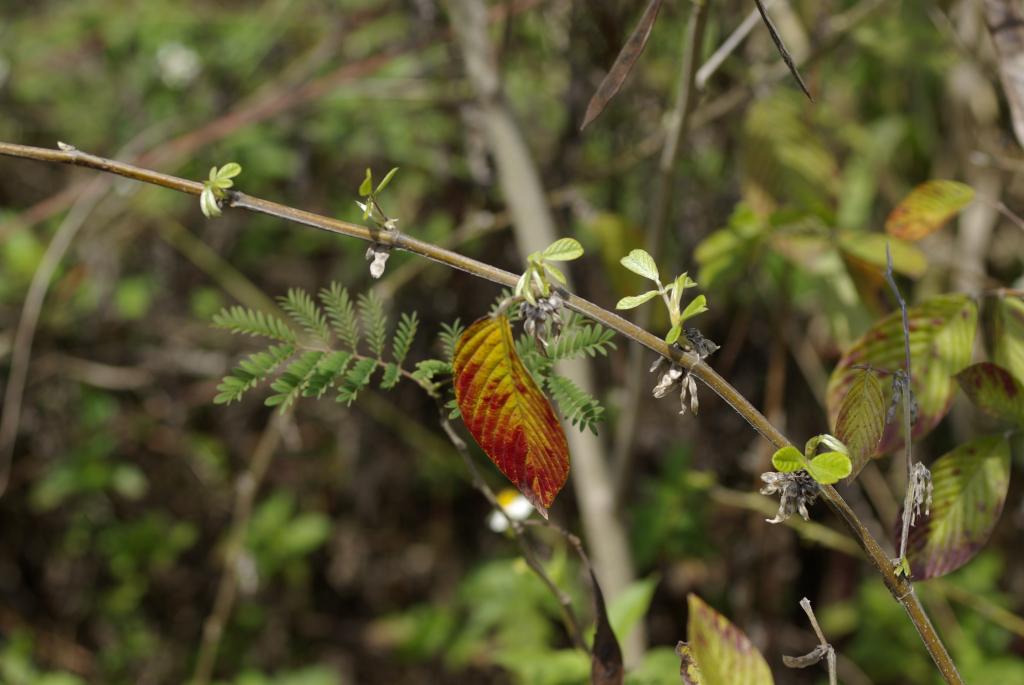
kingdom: Plantae
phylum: Tracheophyta
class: Magnoliopsida
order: Fabales
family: Fabaceae
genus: Dendrolobium
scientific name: Dendrolobium trianglare
